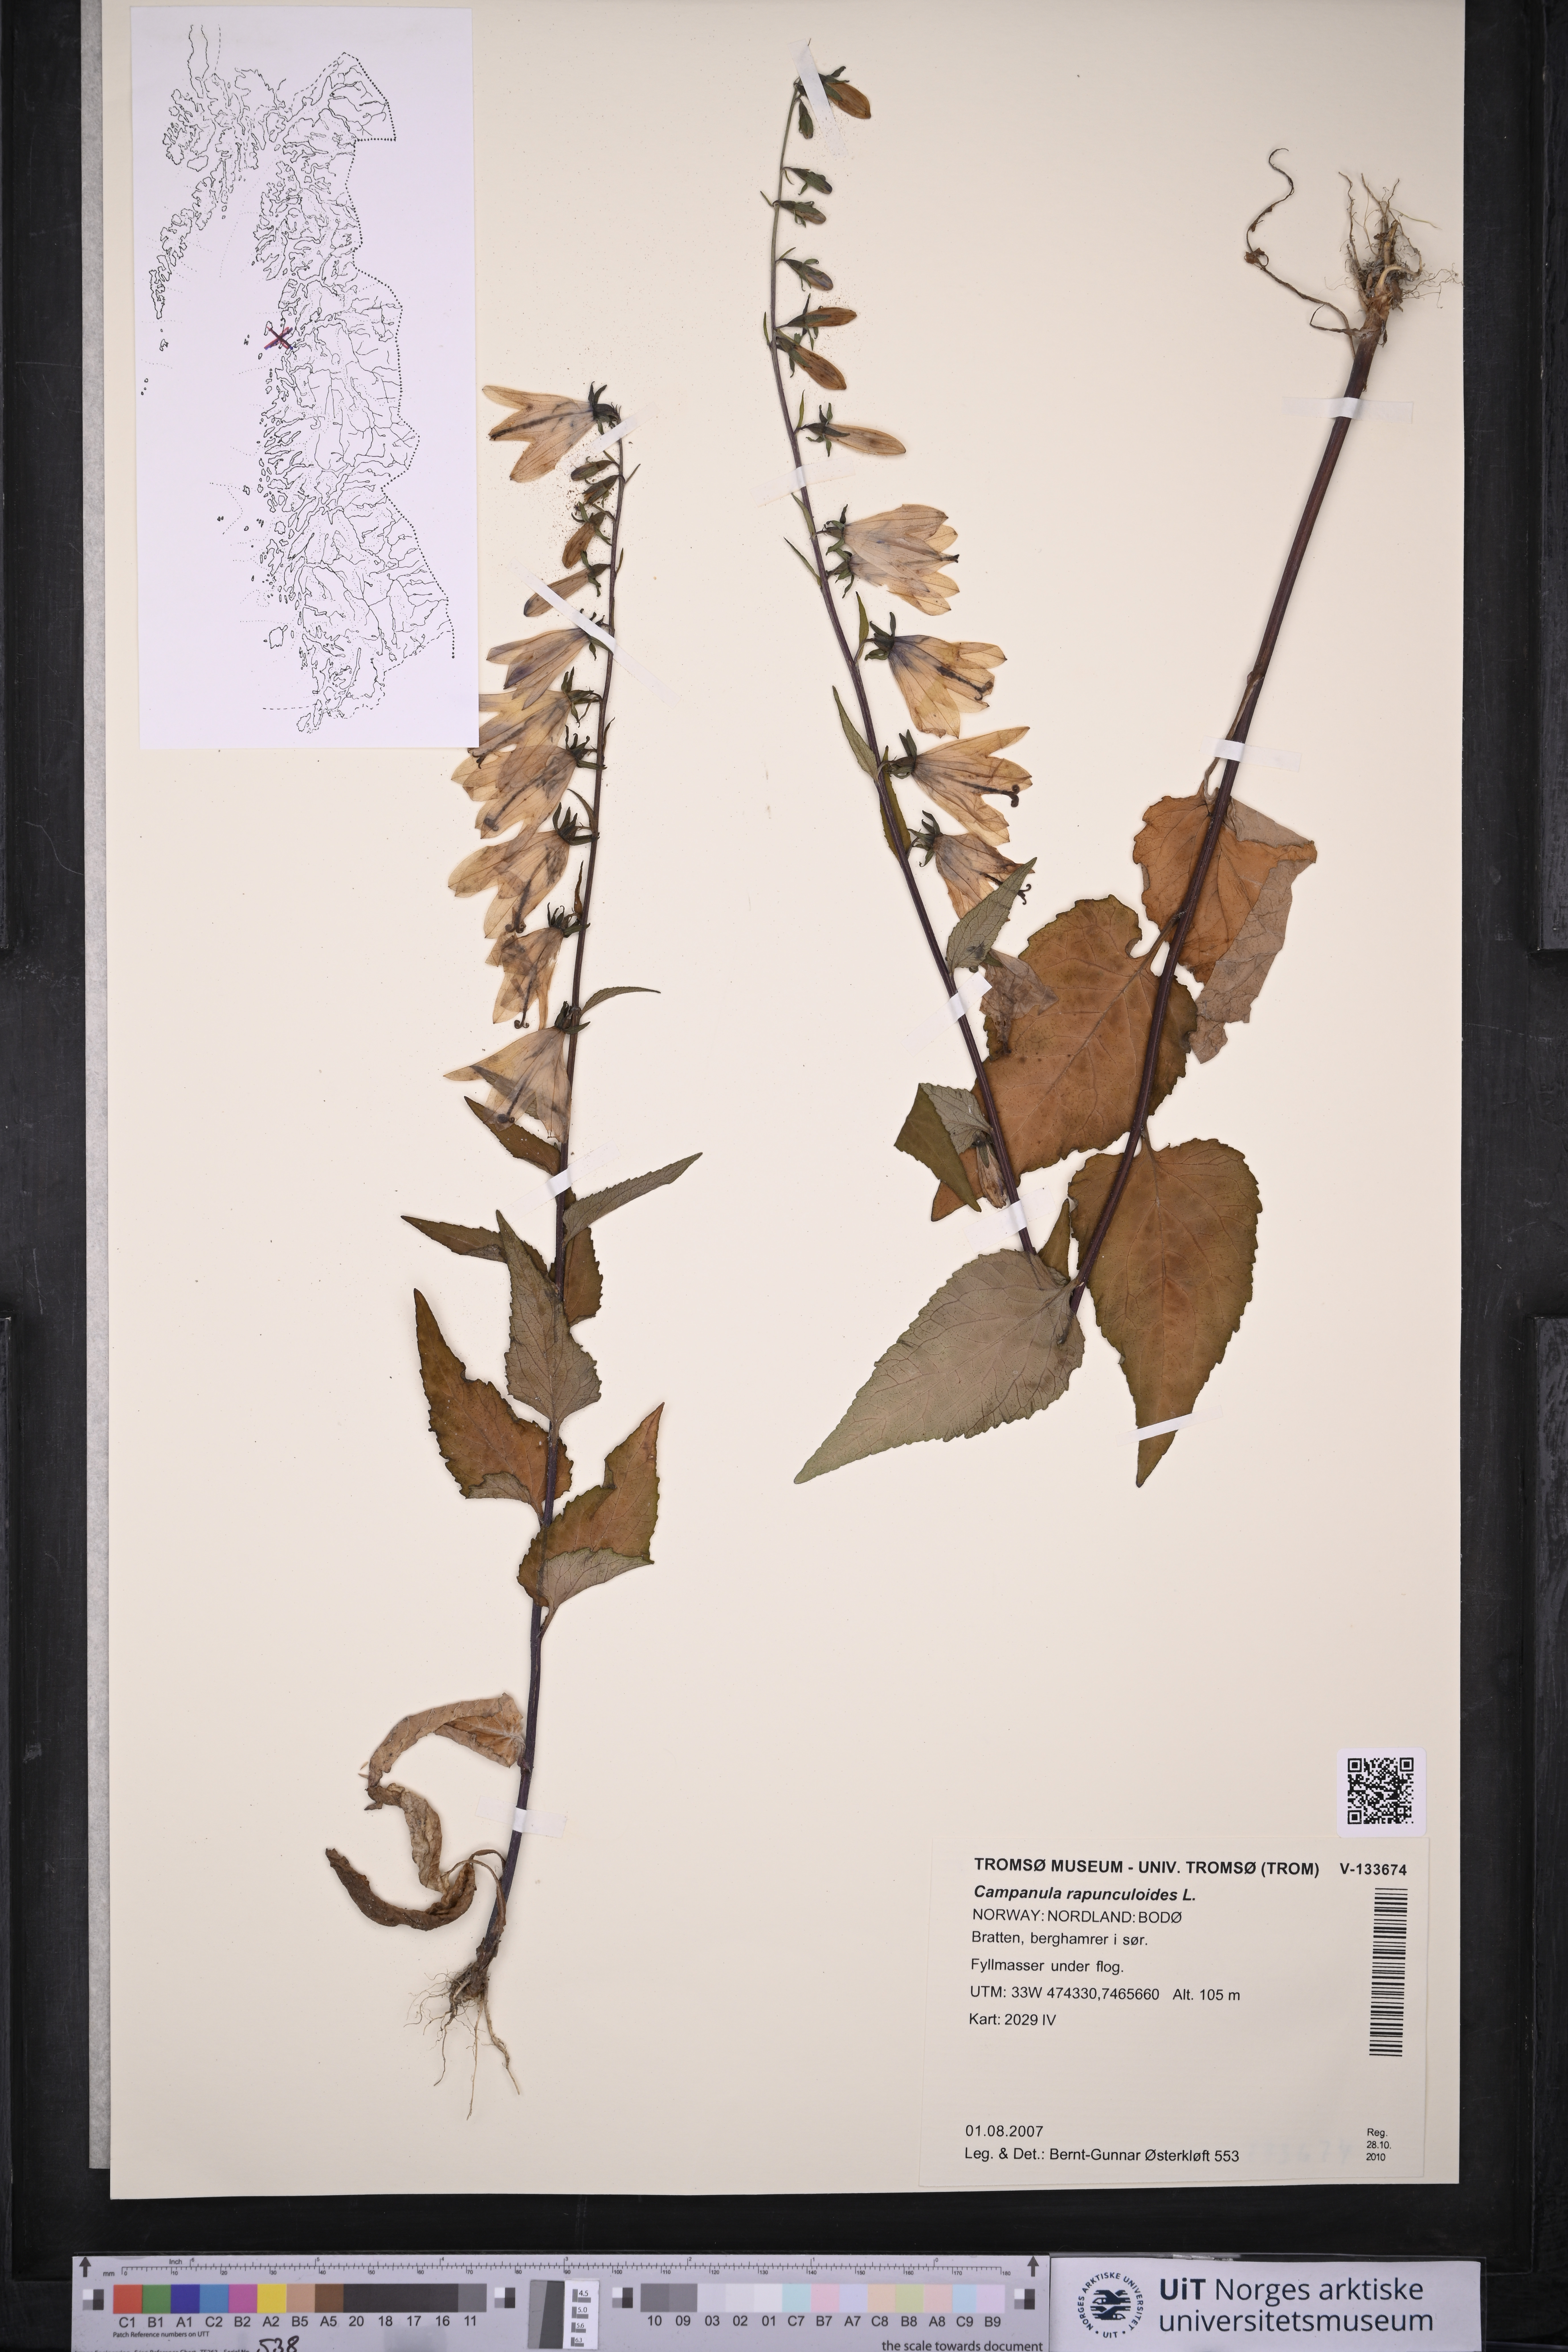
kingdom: Plantae
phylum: Tracheophyta
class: Magnoliopsida
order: Asterales
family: Campanulaceae
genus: Campanula
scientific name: Campanula rapunculoides
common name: Creeping bellflower
